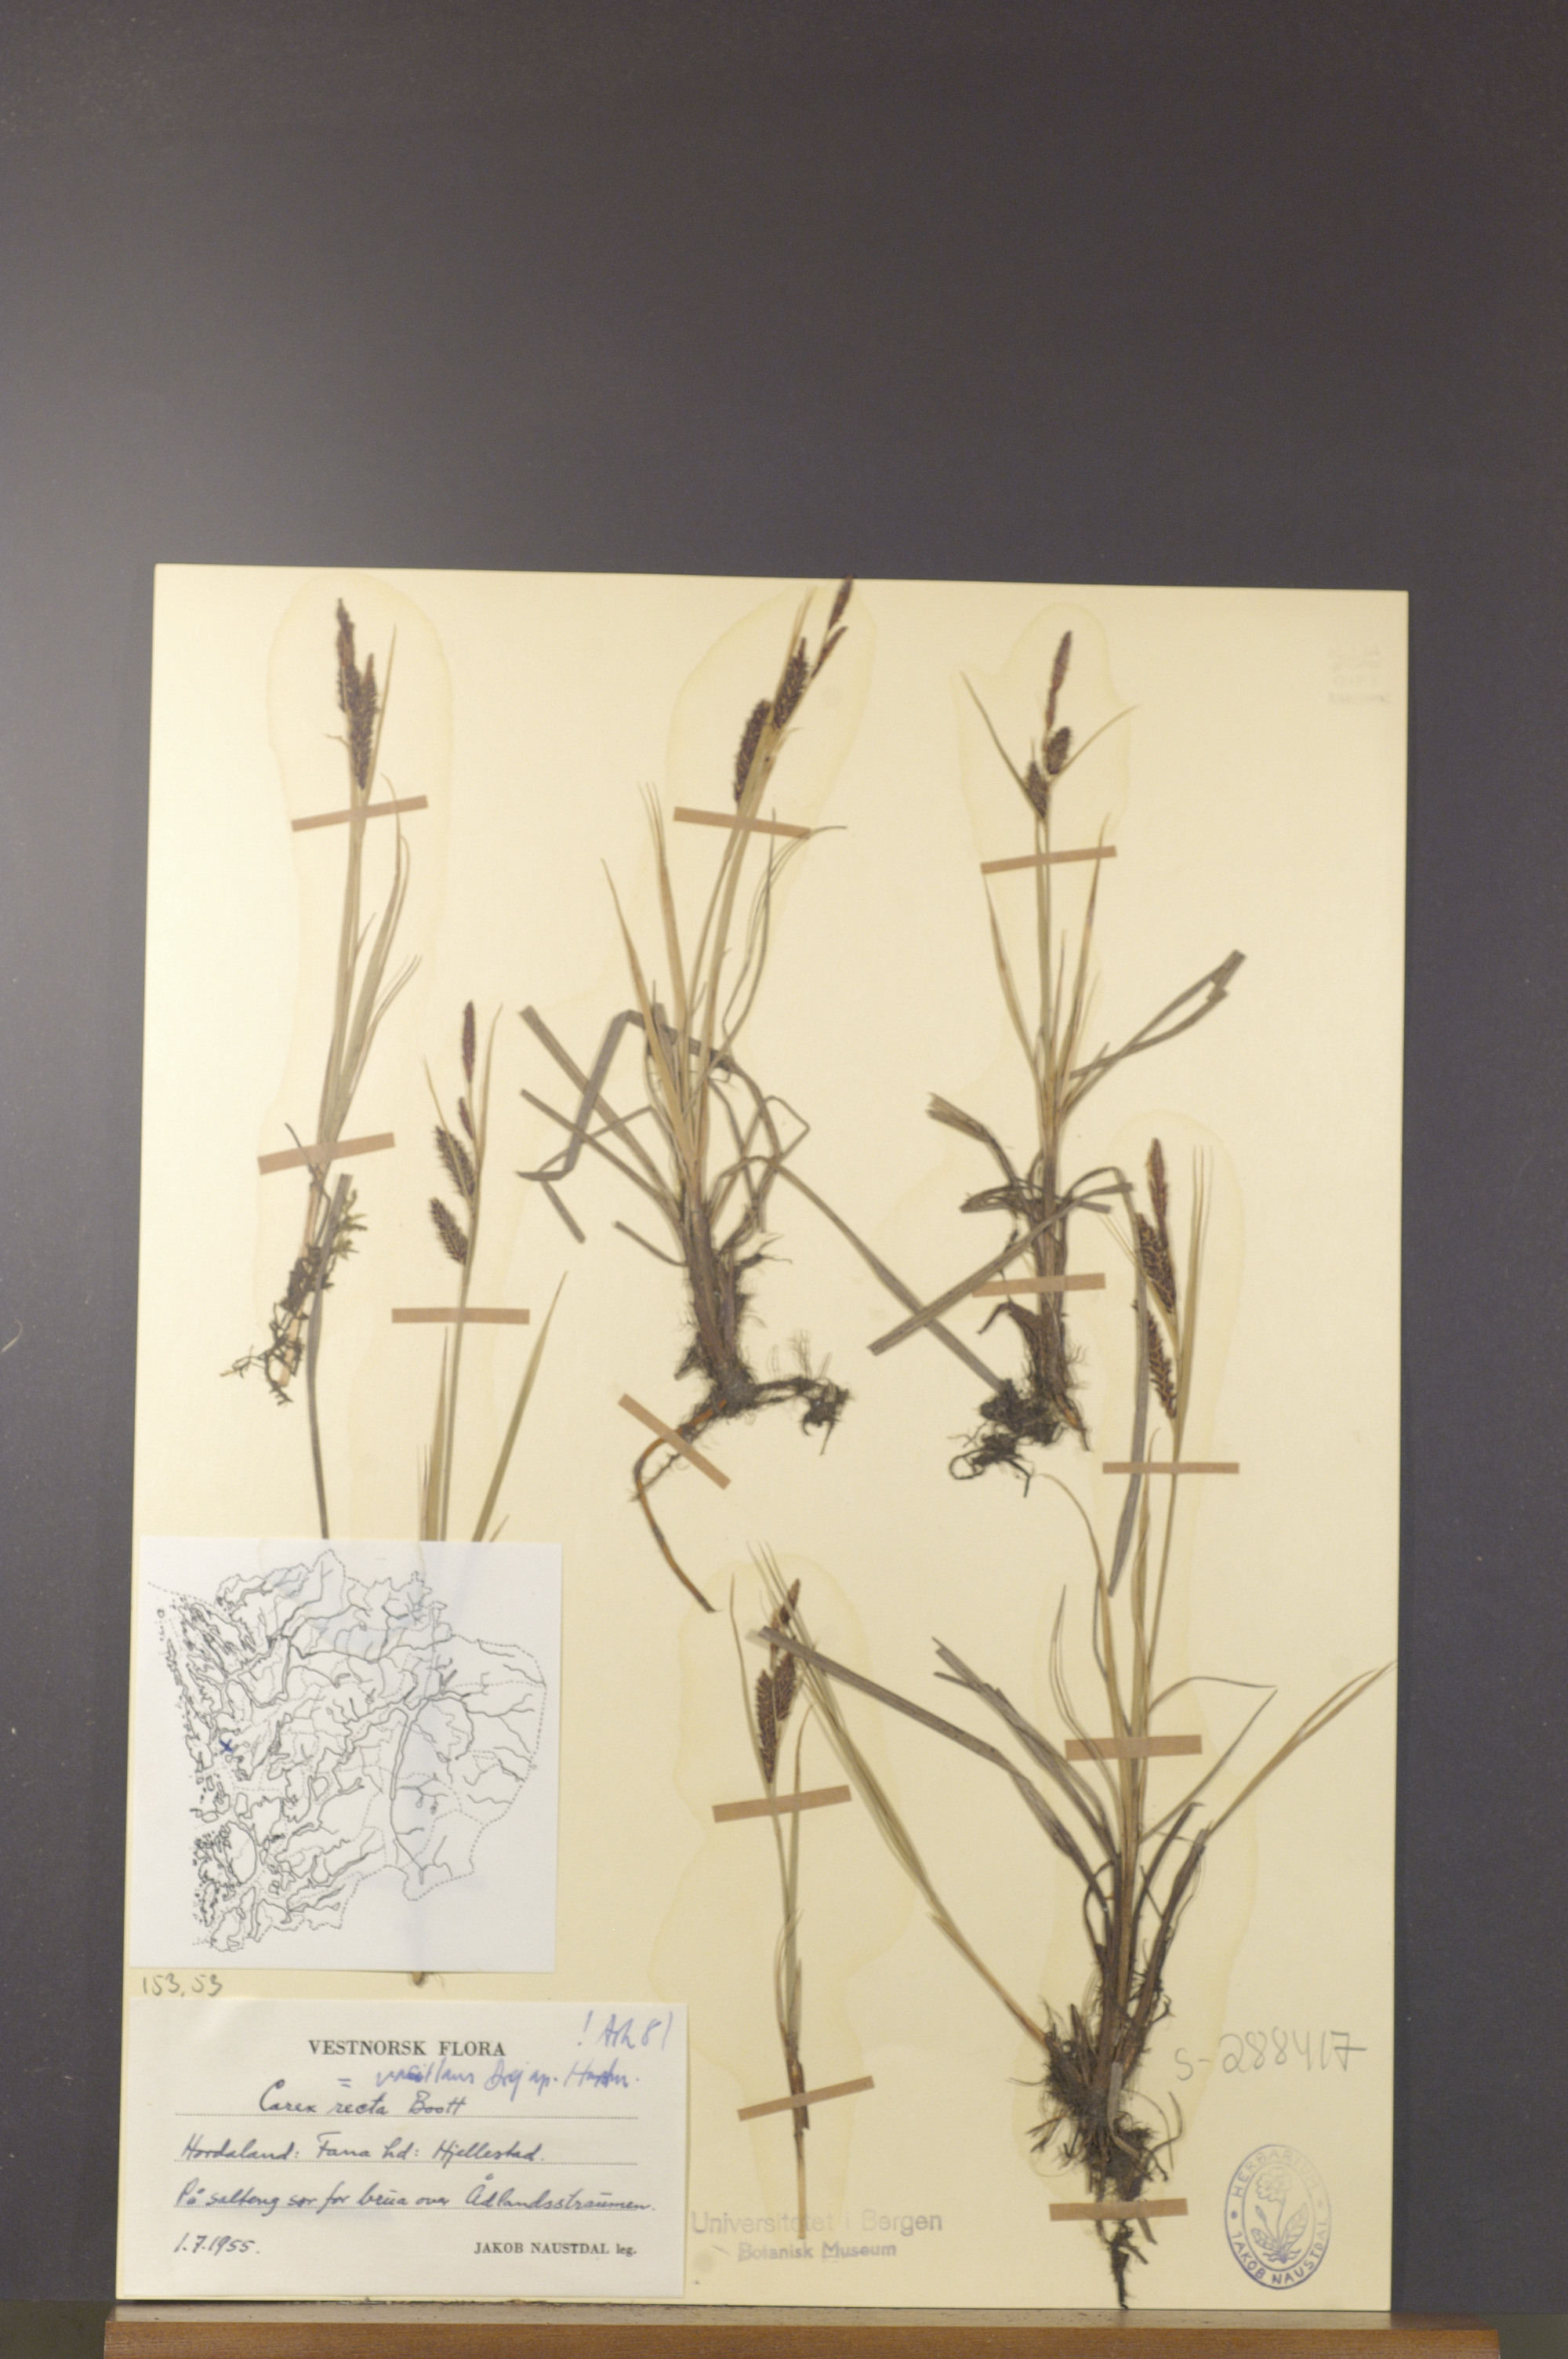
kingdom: Plantae
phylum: Tracheophyta
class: Liliopsida
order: Poales
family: Cyperaceae
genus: Carex
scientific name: Carex vacillans
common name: Sedge
